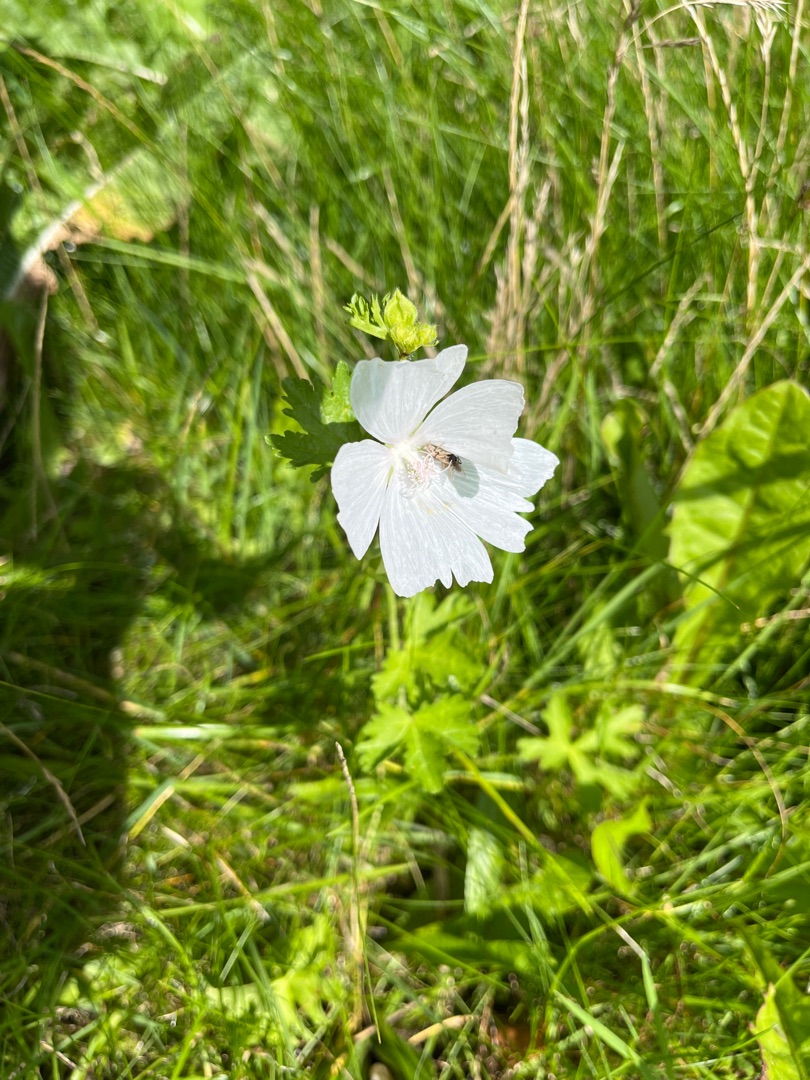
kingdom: Plantae
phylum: Tracheophyta
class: Magnoliopsida
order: Malvales
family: Malvaceae
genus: Malva
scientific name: Malva moschata
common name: Moskus-katost
